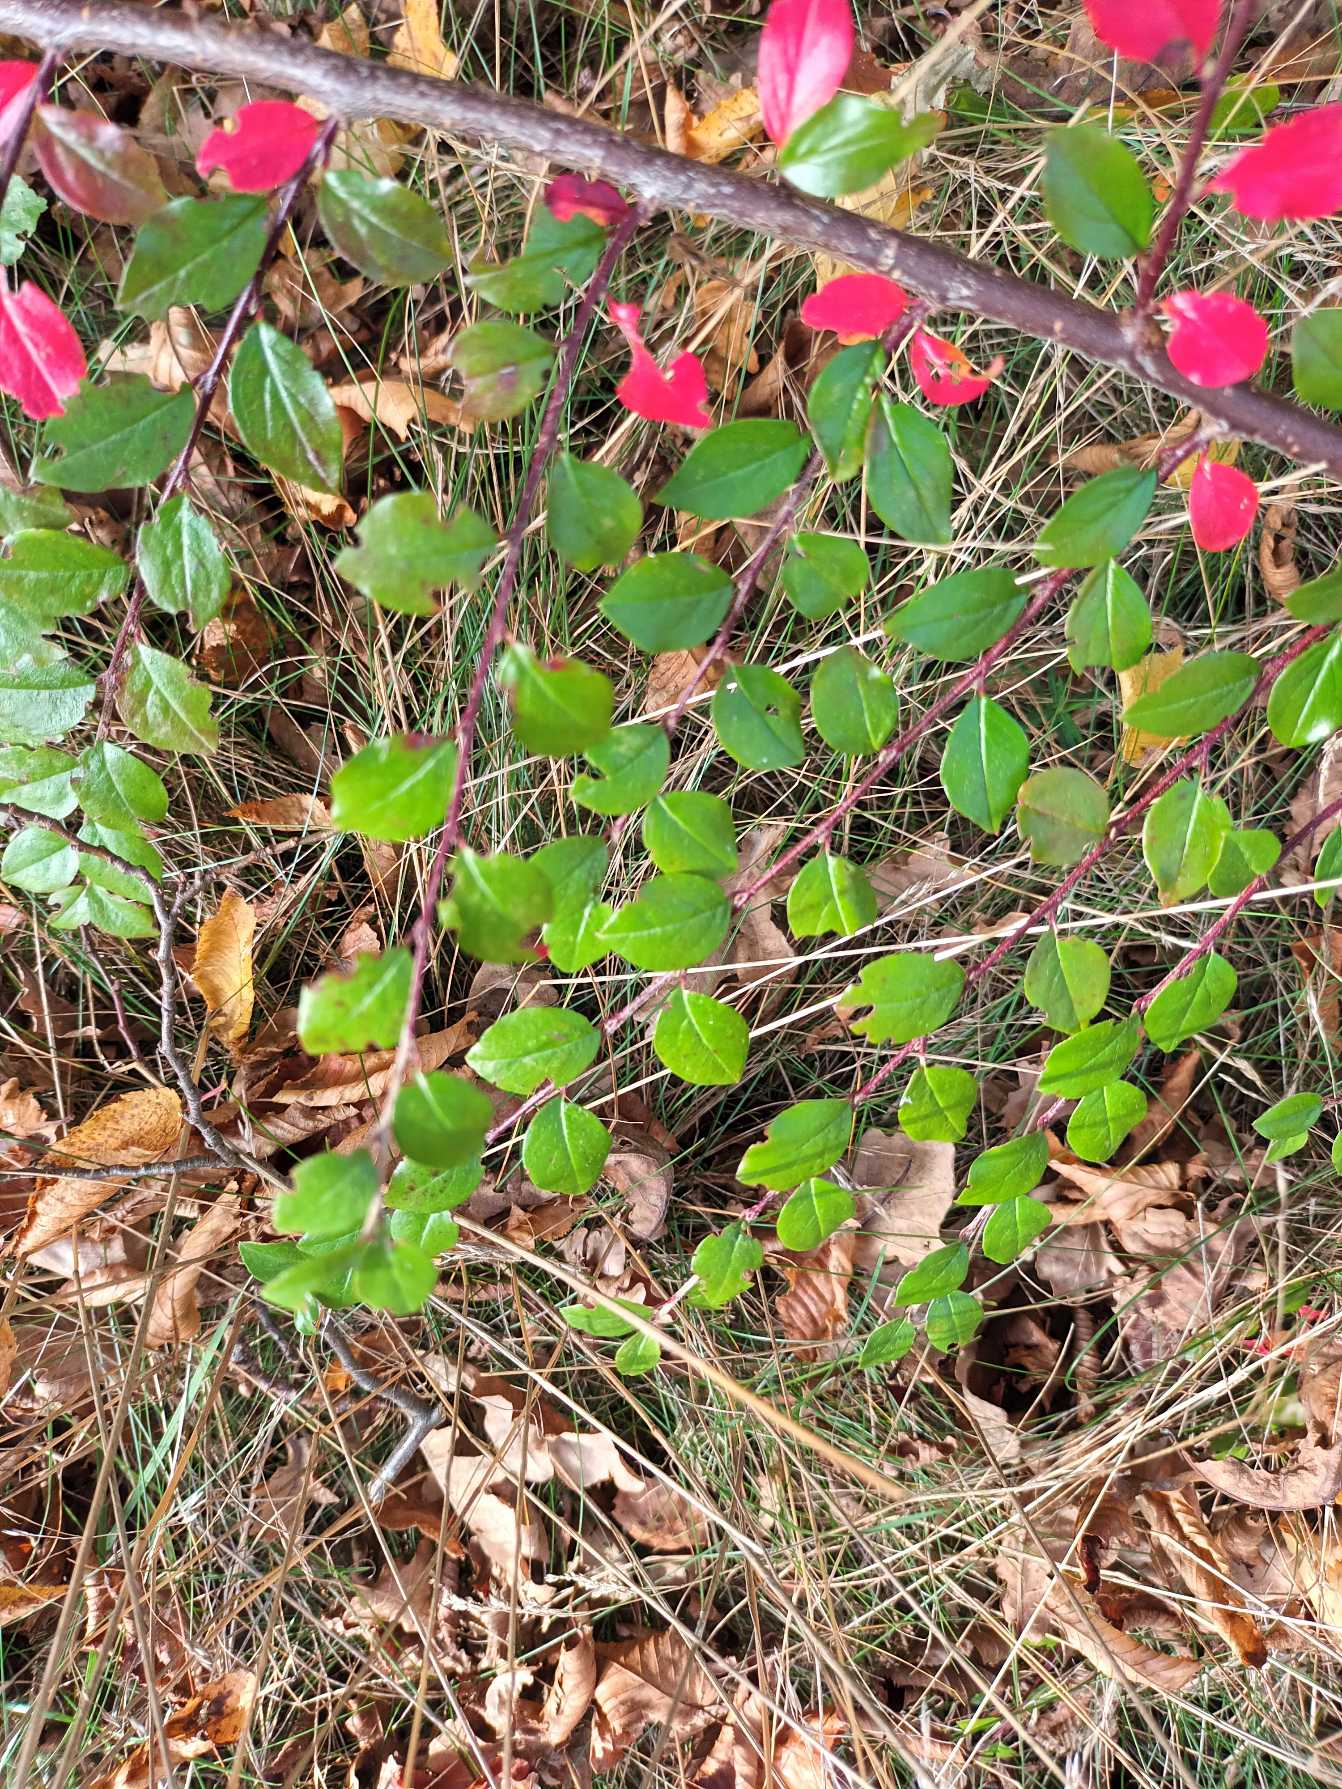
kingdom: Plantae
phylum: Tracheophyta
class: Magnoliopsida
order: Rosales
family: Rosaceae
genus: Cotoneaster
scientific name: Cotoneaster divaricatus
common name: Vifte-dværgmispel
